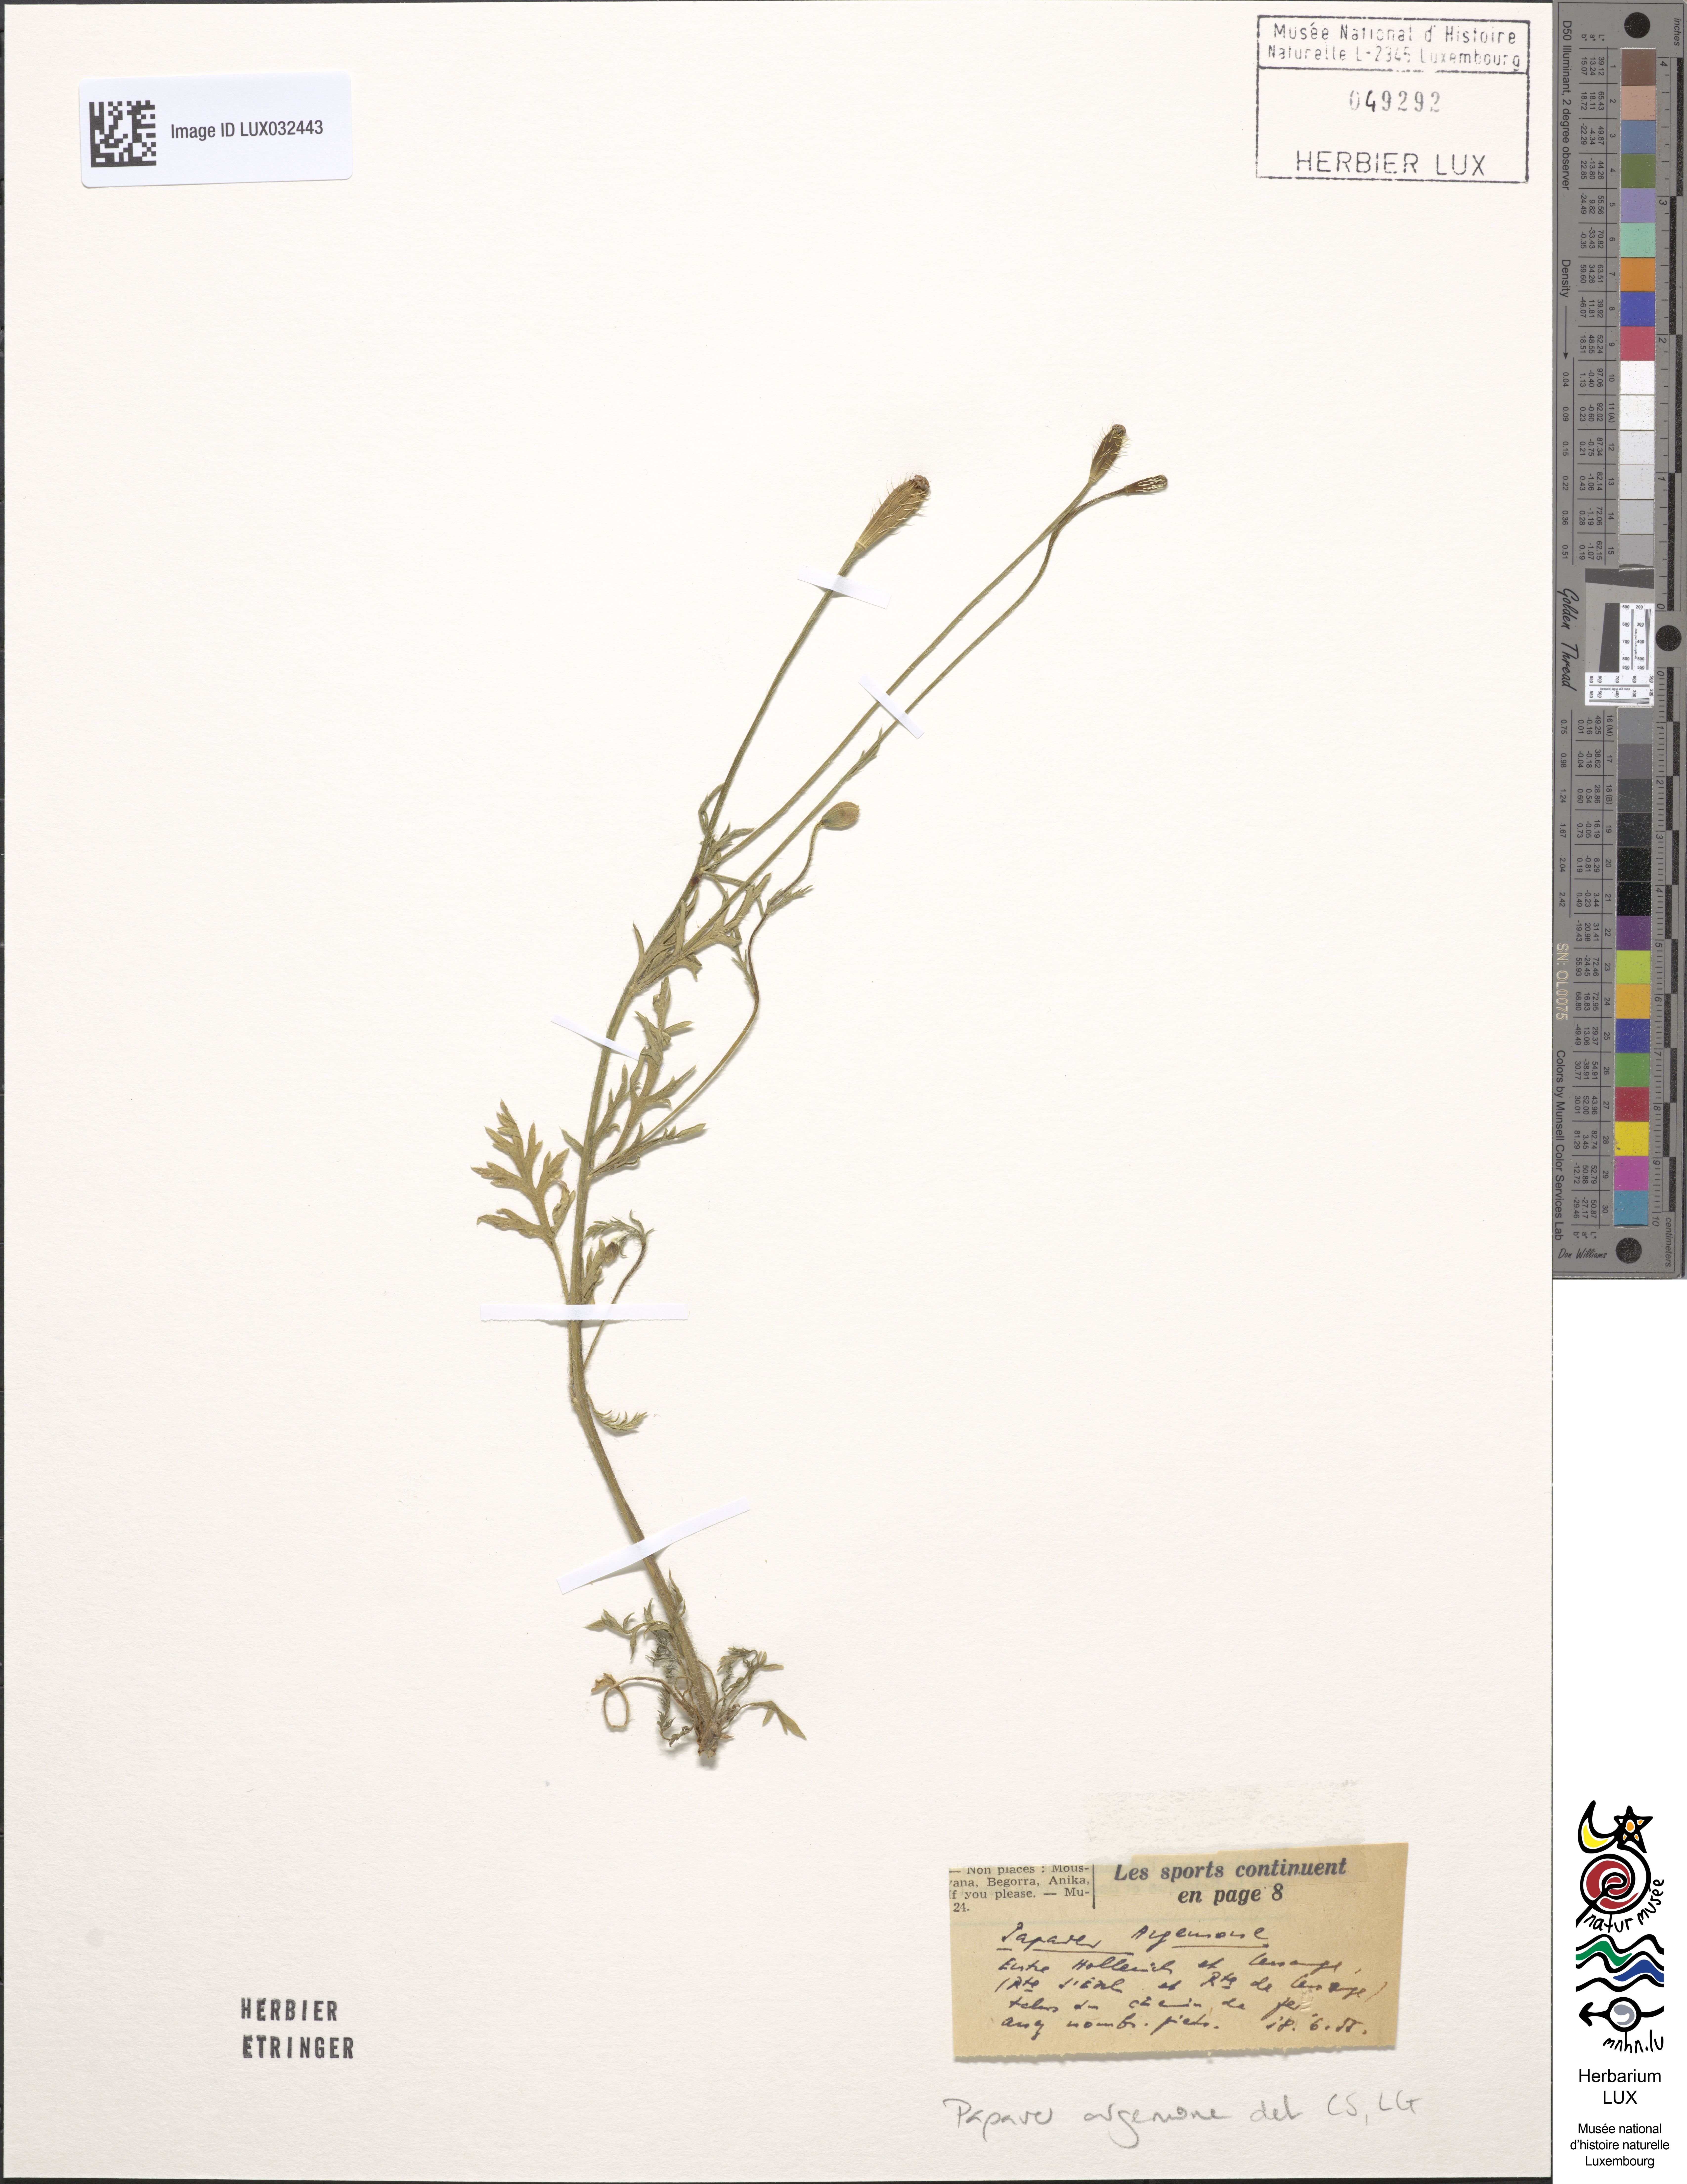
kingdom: Plantae
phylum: Tracheophyta
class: Magnoliopsida
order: Ranunculales
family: Papaveraceae
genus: Roemeria
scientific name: Roemeria argemone
